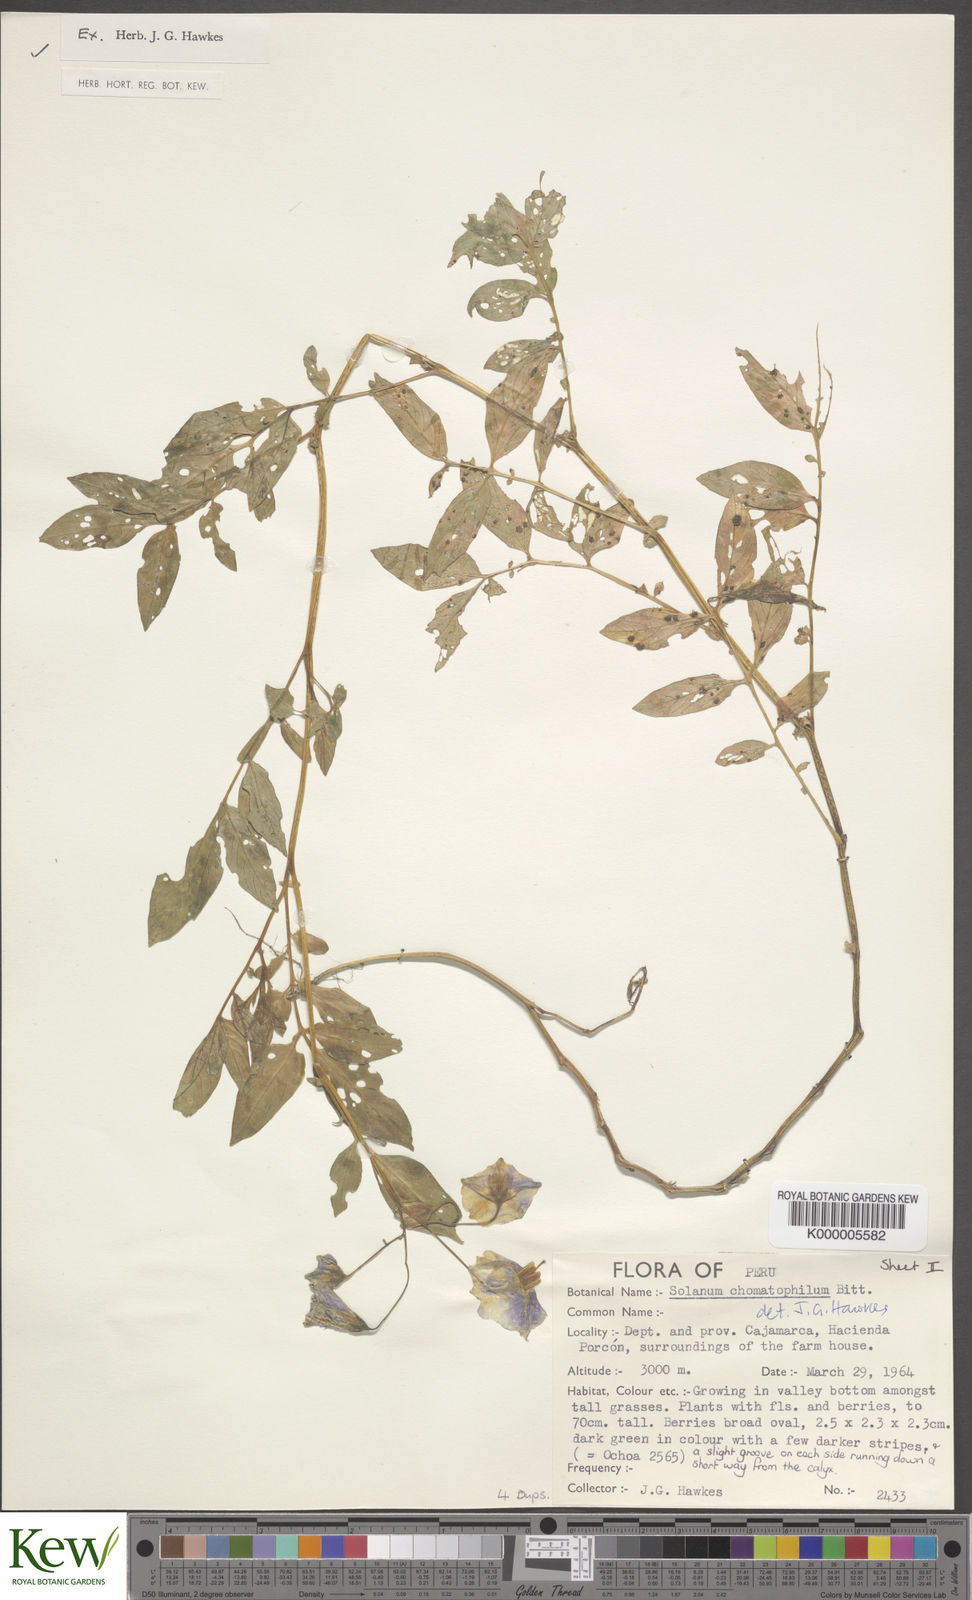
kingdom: Plantae
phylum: Tracheophyta
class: Magnoliopsida
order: Solanales
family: Solanaceae
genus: Solanum
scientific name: Solanum chomatophilum
